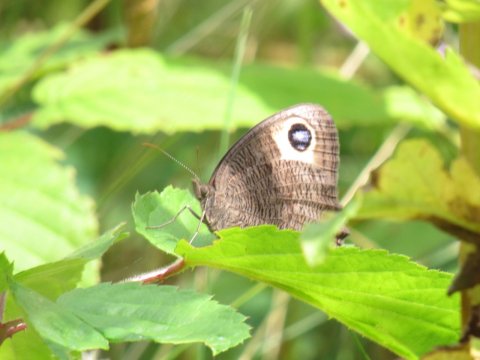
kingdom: Animalia
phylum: Arthropoda
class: Insecta
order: Lepidoptera
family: Nymphalidae
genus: Cercyonis
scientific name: Cercyonis pegala
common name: Common Wood-Nymph
